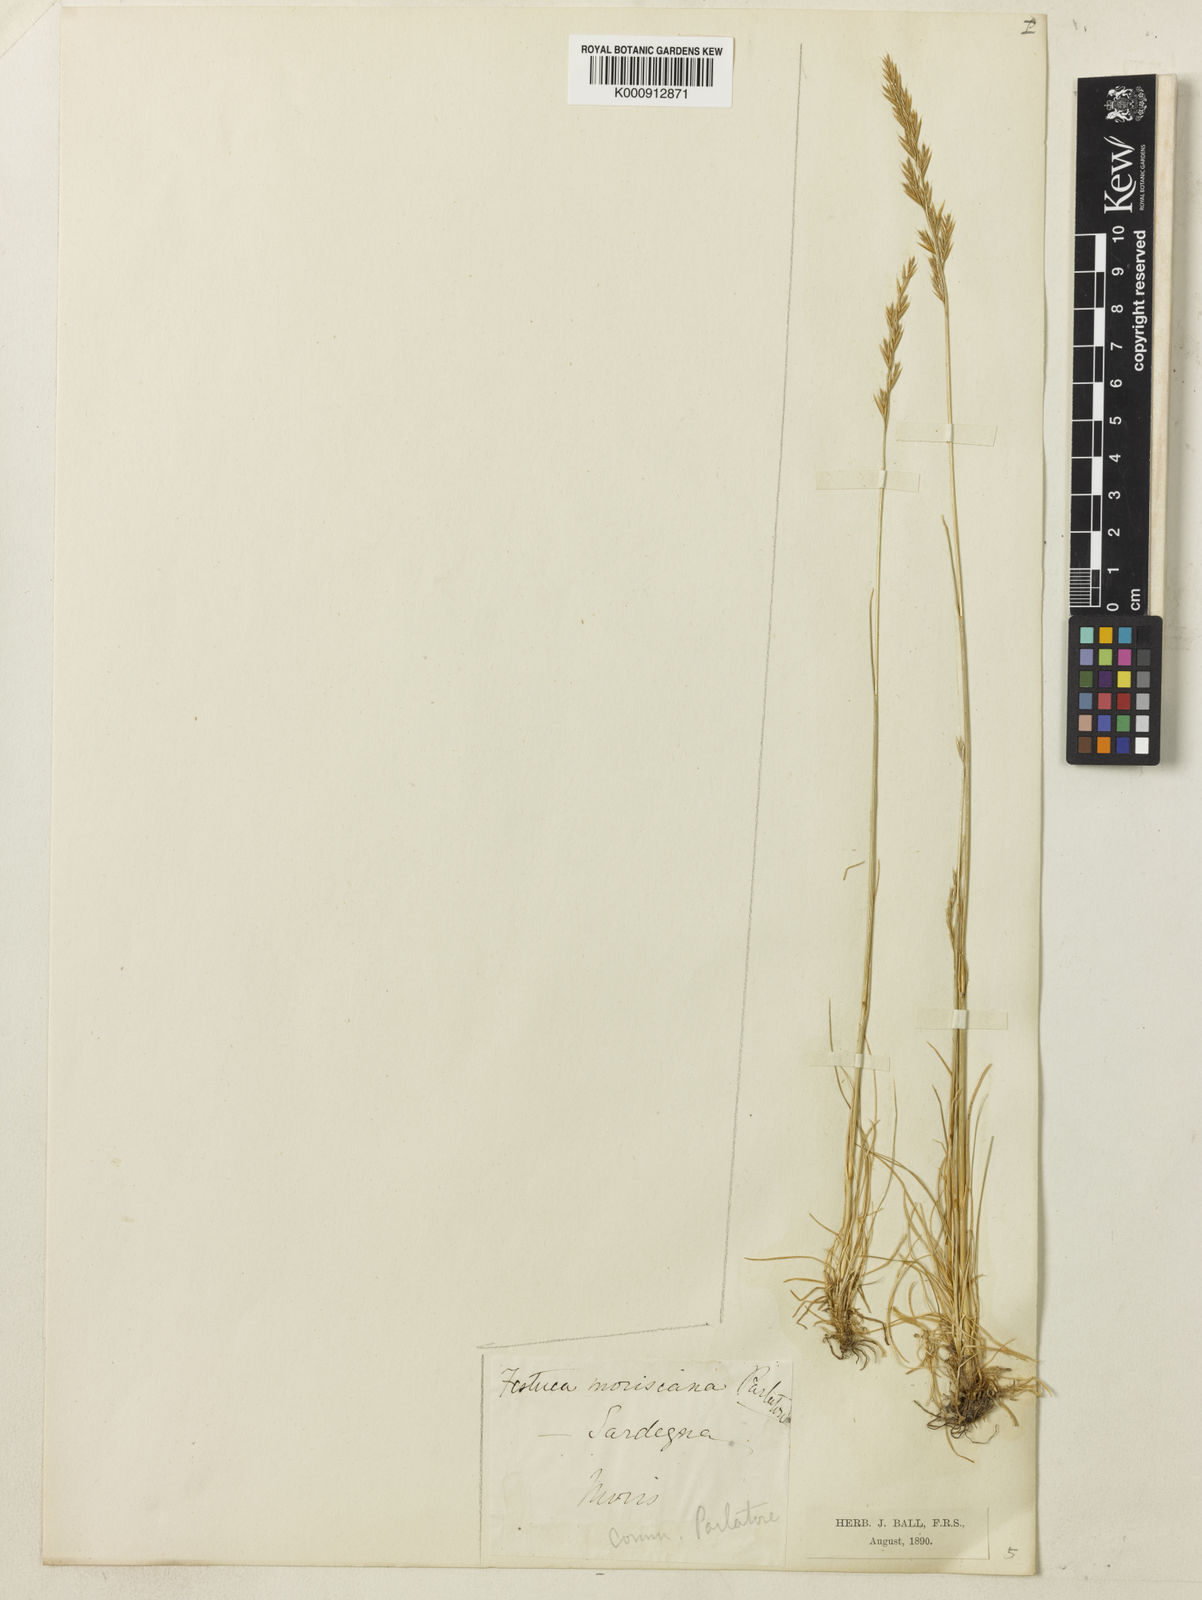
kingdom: Plantae
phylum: Tracheophyta
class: Liliopsida
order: Poales
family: Poaceae
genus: Festuca
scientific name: Festuca morisiana
